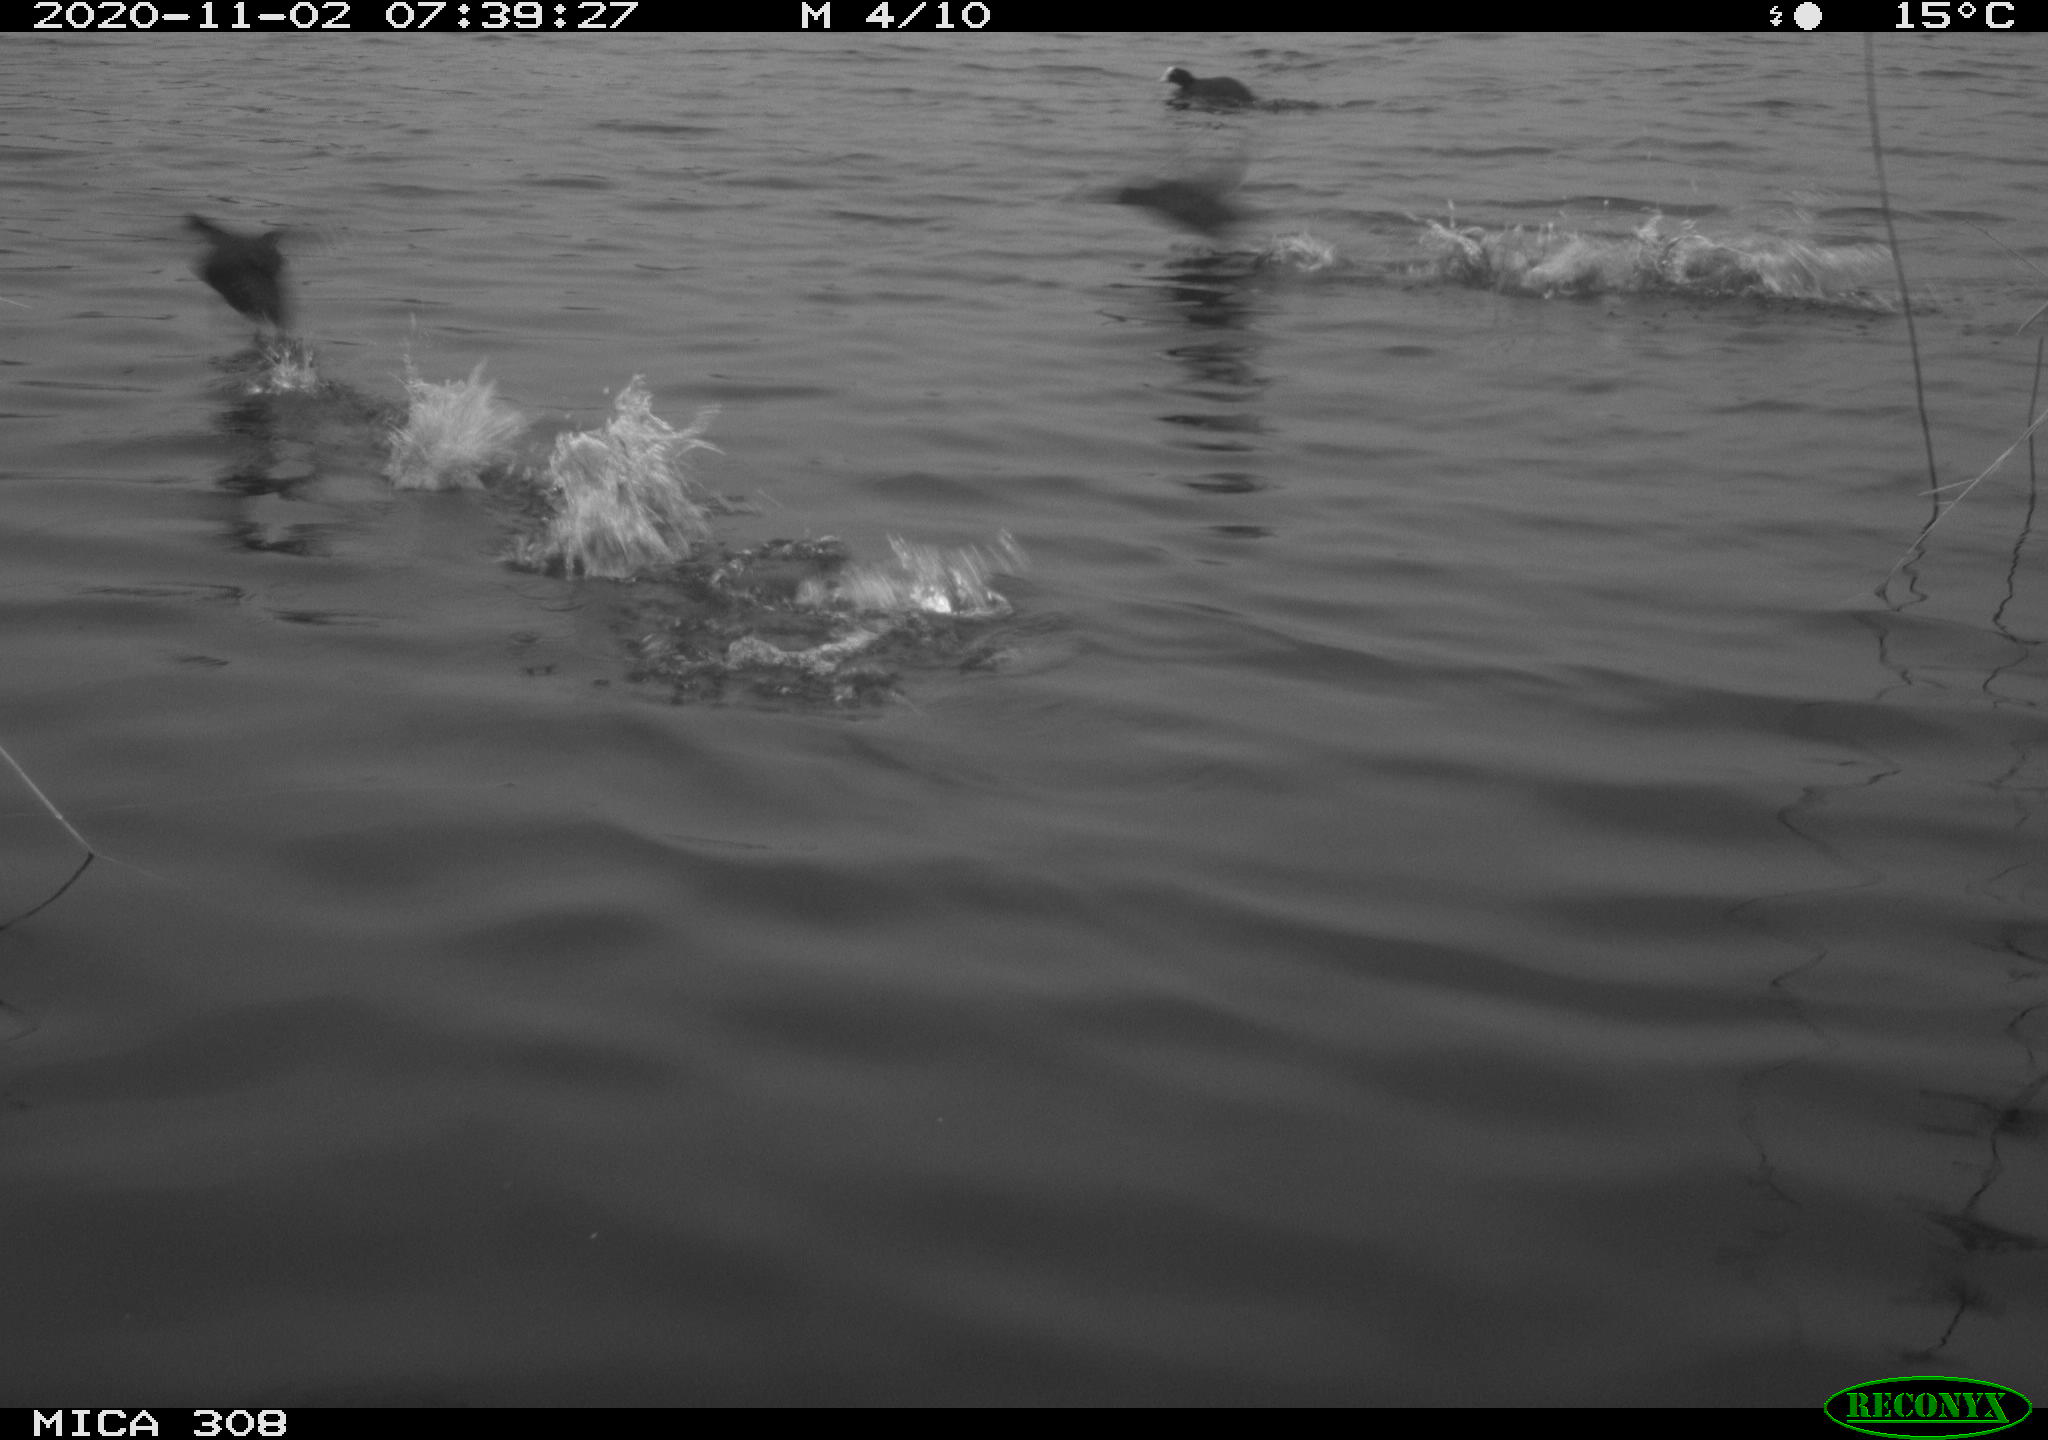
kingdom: Animalia
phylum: Chordata
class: Aves
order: Gruiformes
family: Rallidae
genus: Gallinula
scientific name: Gallinula chloropus
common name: Common moorhen
